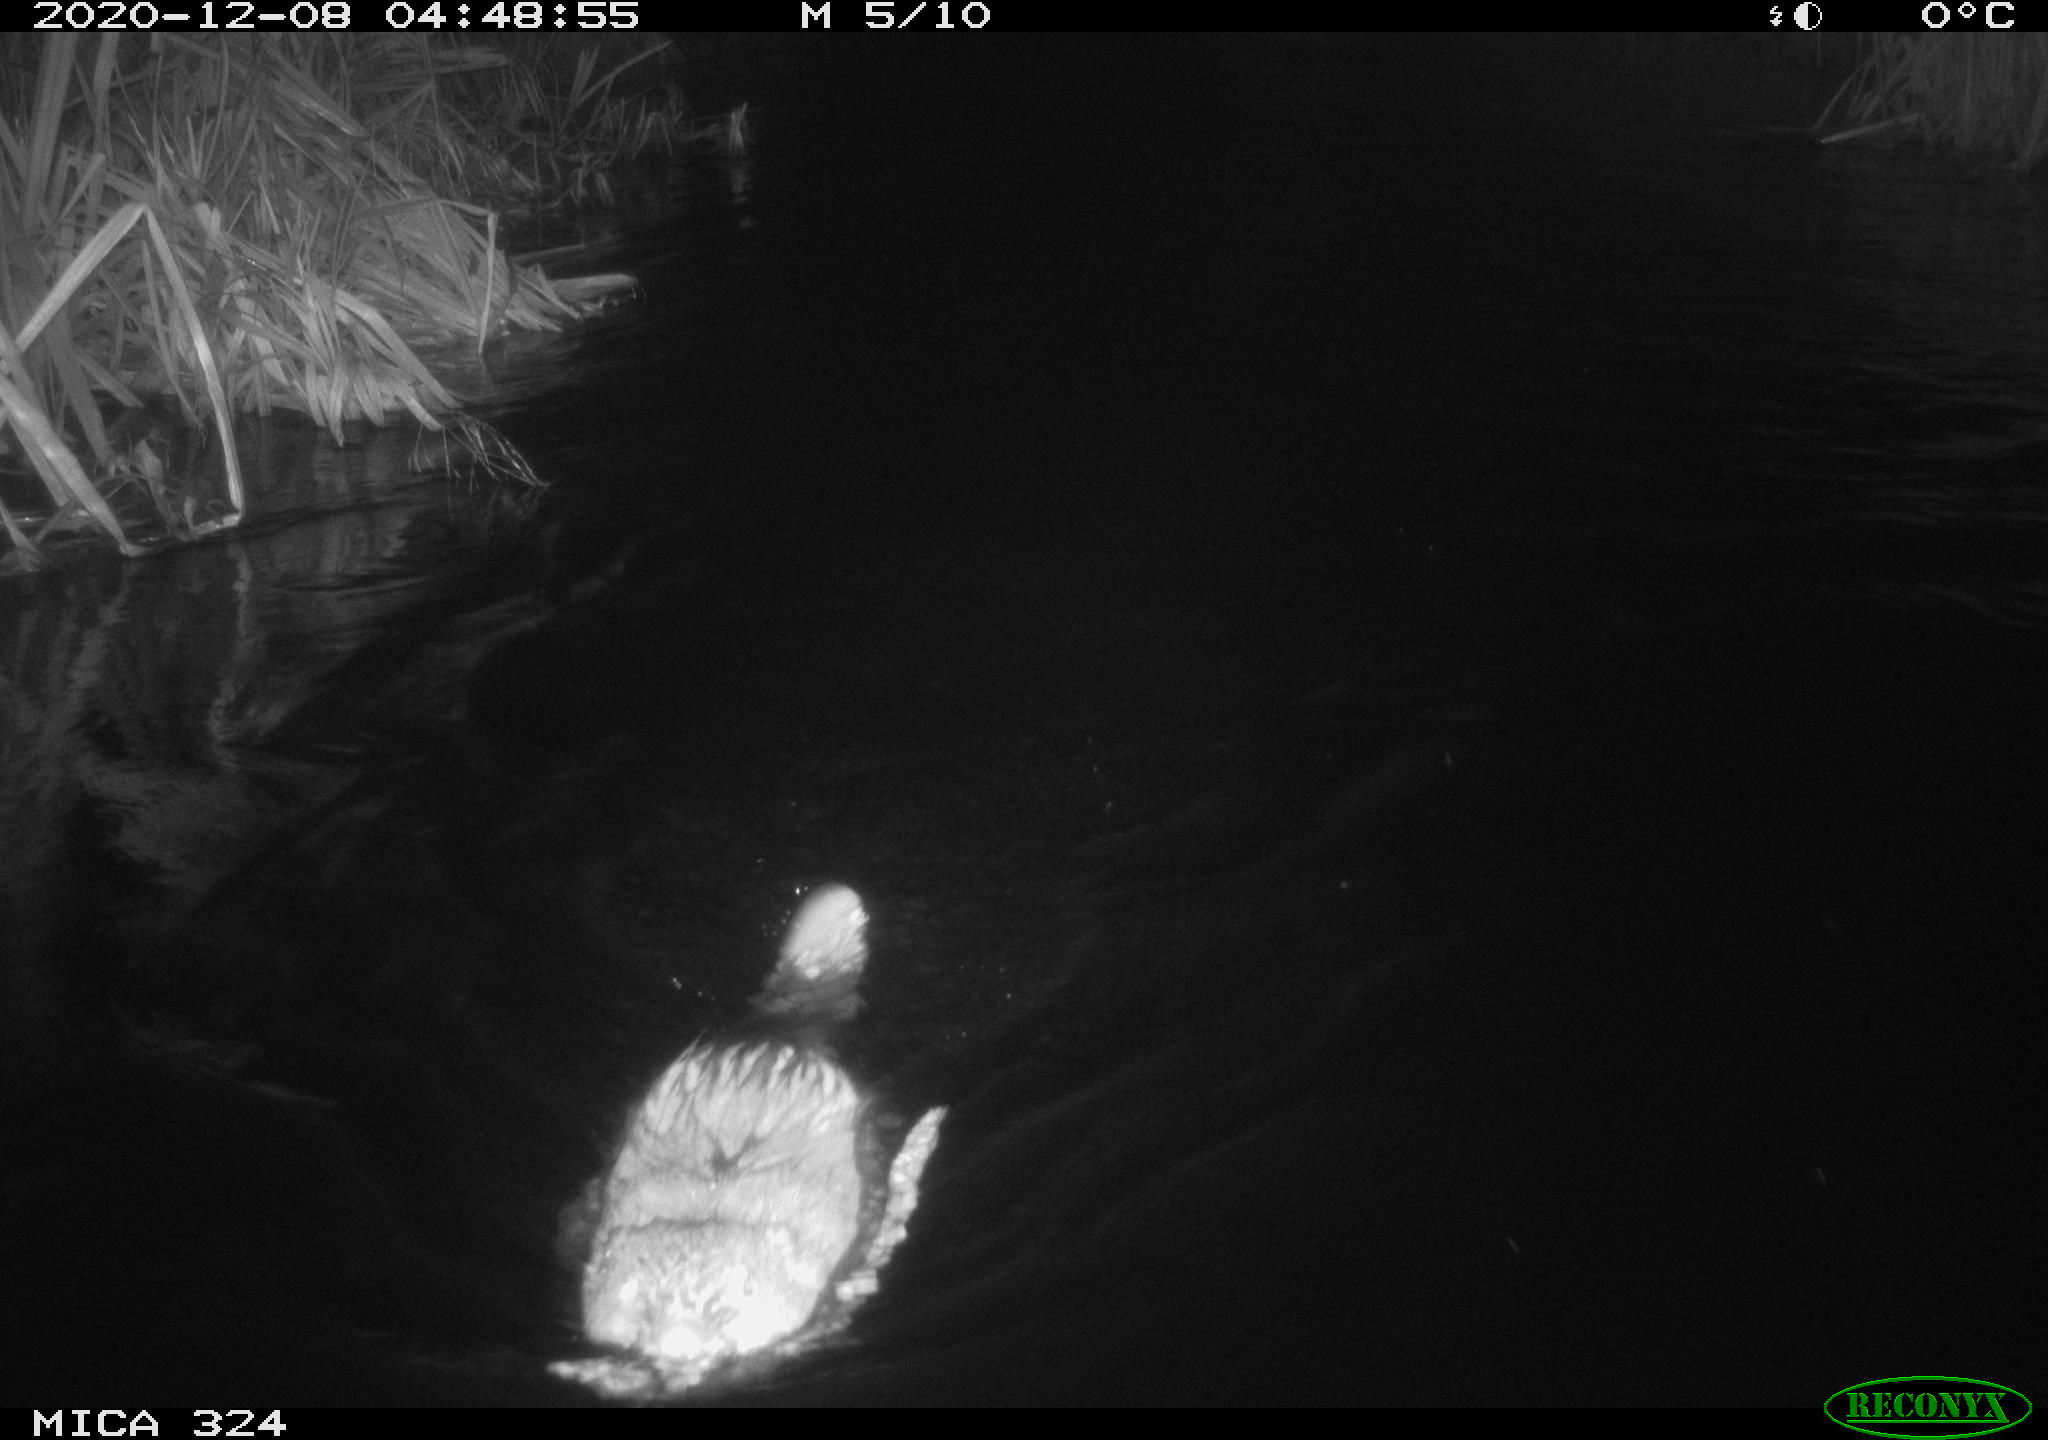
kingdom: Animalia
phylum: Chordata
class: Mammalia
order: Rodentia
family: Castoridae
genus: Castor
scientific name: Castor fiber
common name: Eurasian beaver
